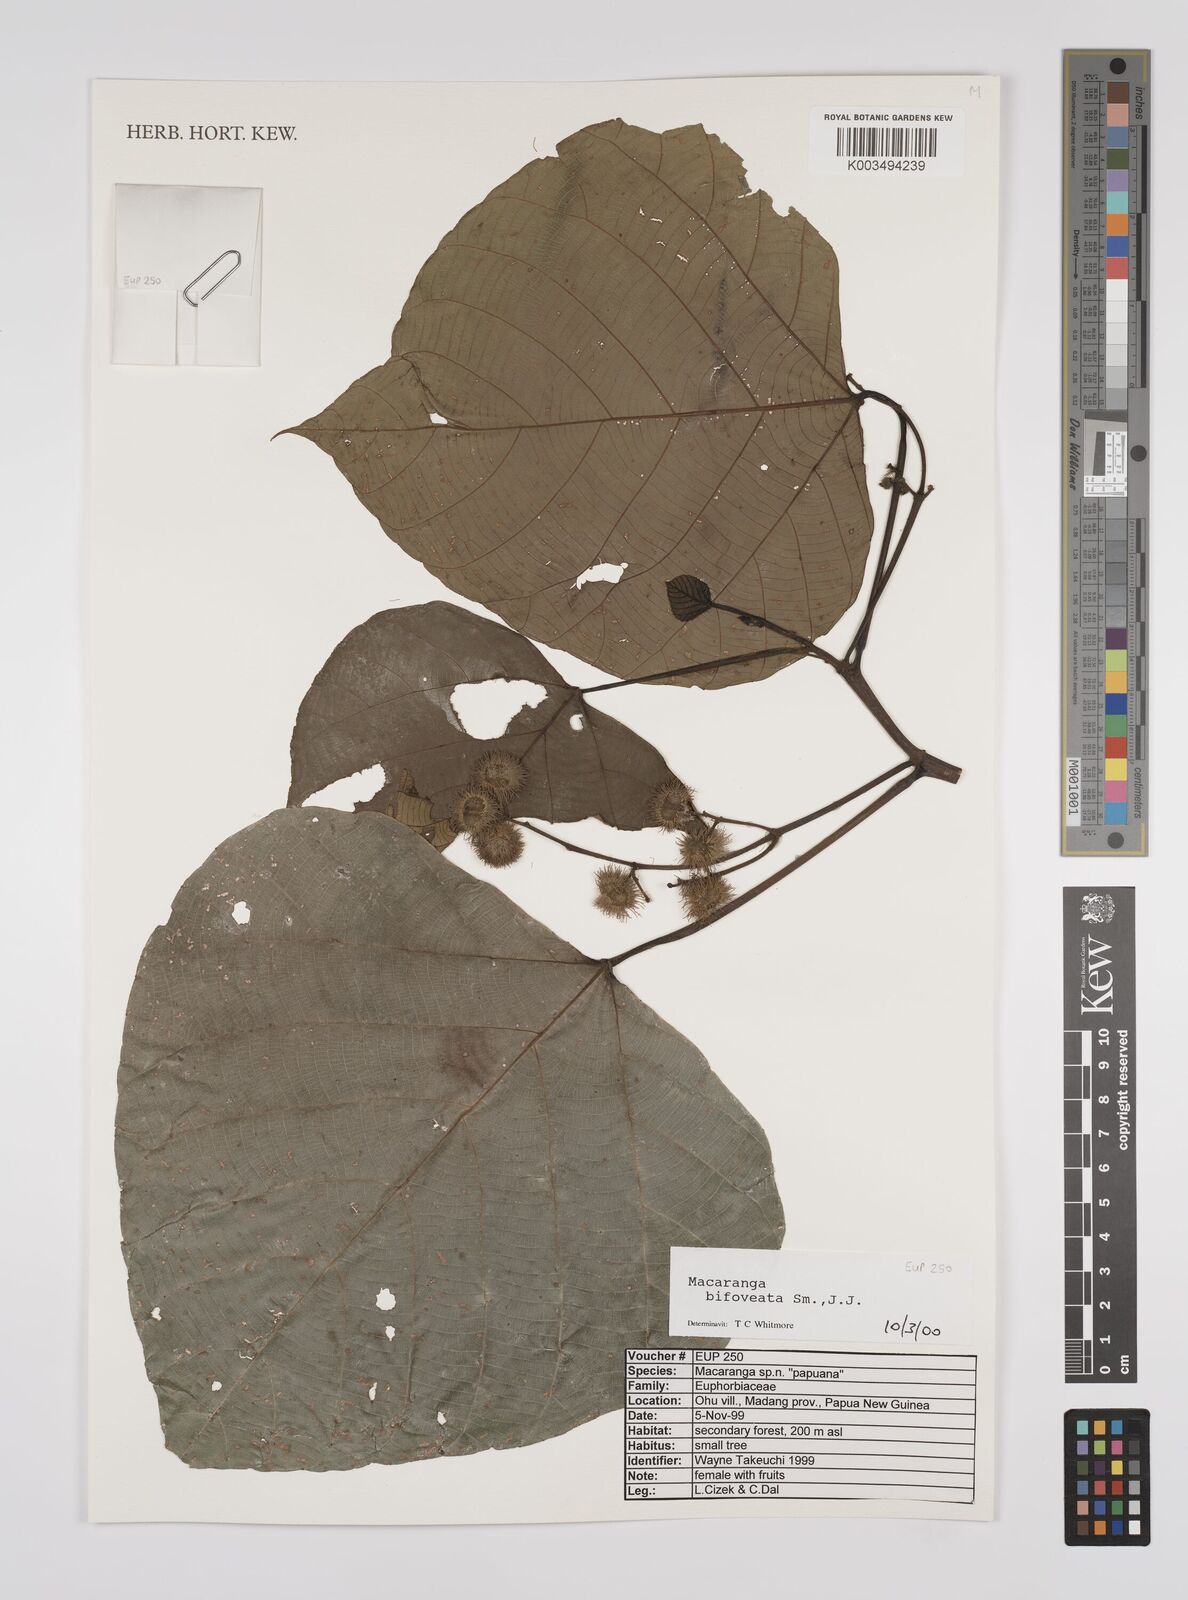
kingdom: Plantae
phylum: Tracheophyta
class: Magnoliopsida
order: Malpighiales
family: Euphorbiaceae
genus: Macaranga
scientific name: Macaranga bifoveata
